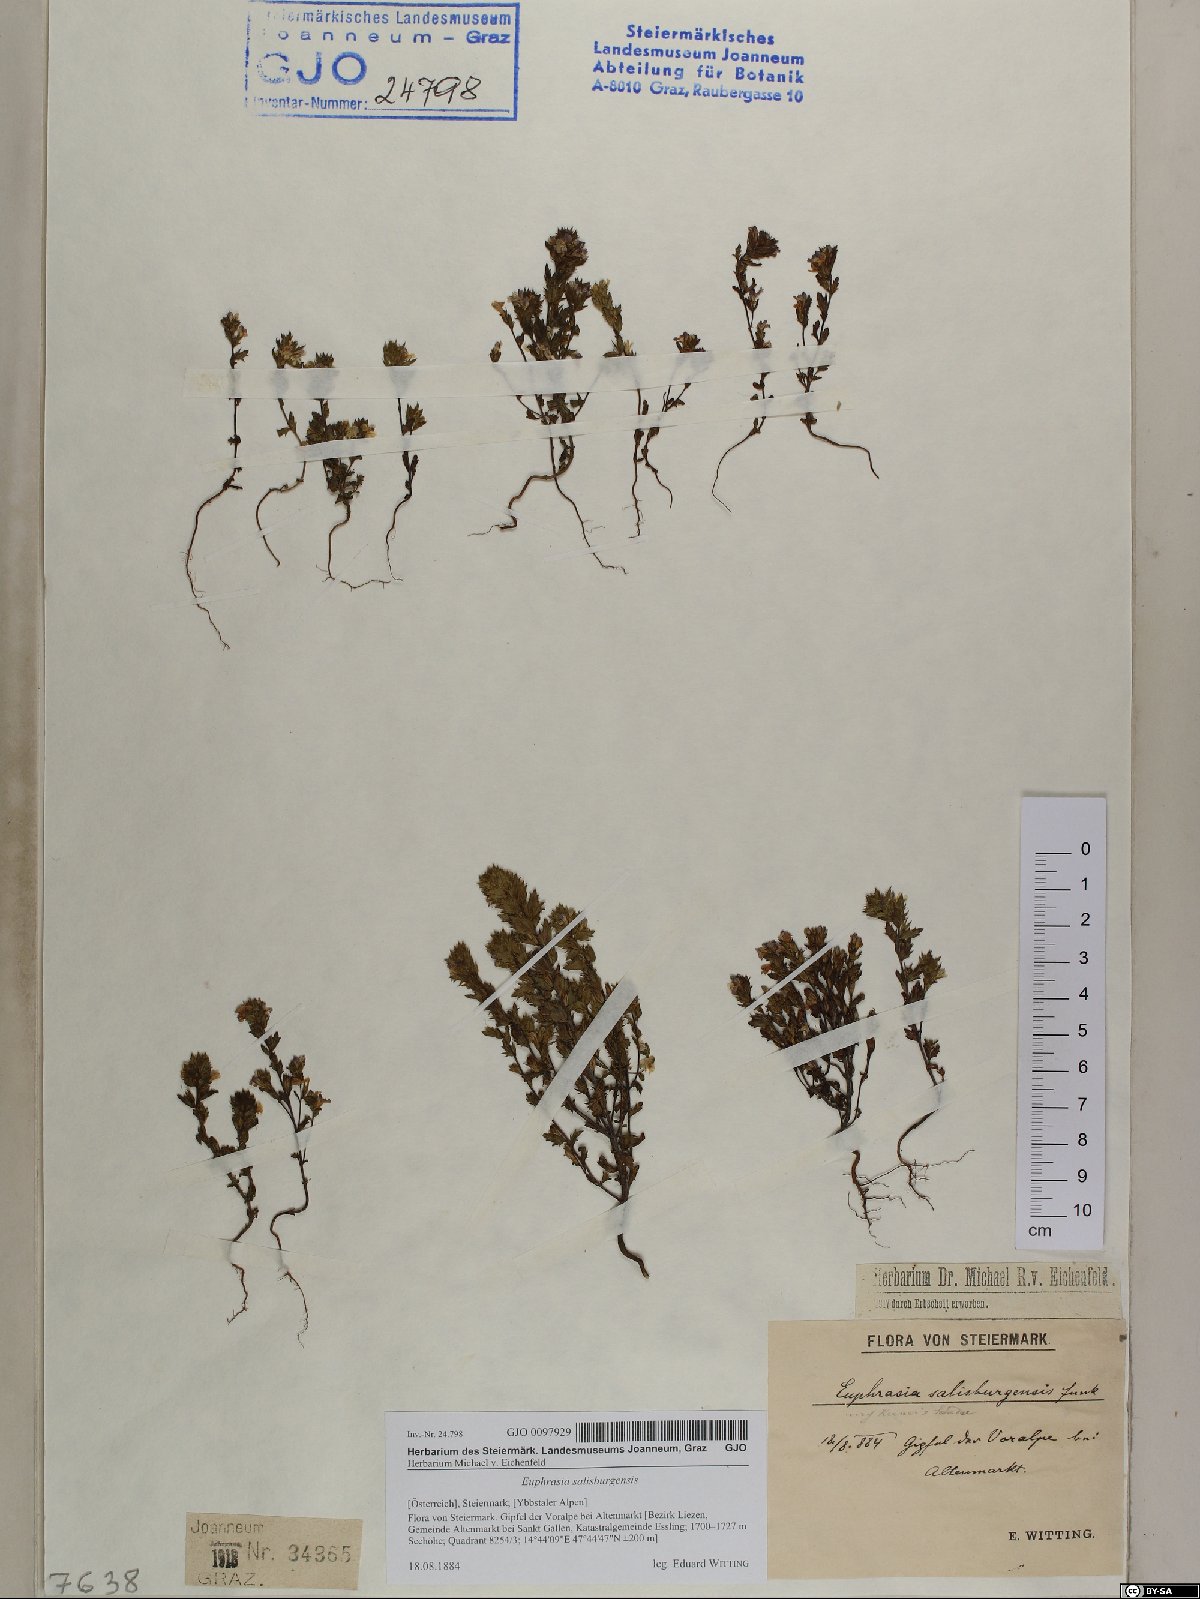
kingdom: Plantae
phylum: Tracheophyta
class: Magnoliopsida
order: Lamiales
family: Orobanchaceae
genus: Euphrasia
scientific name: Euphrasia salisburgensis
